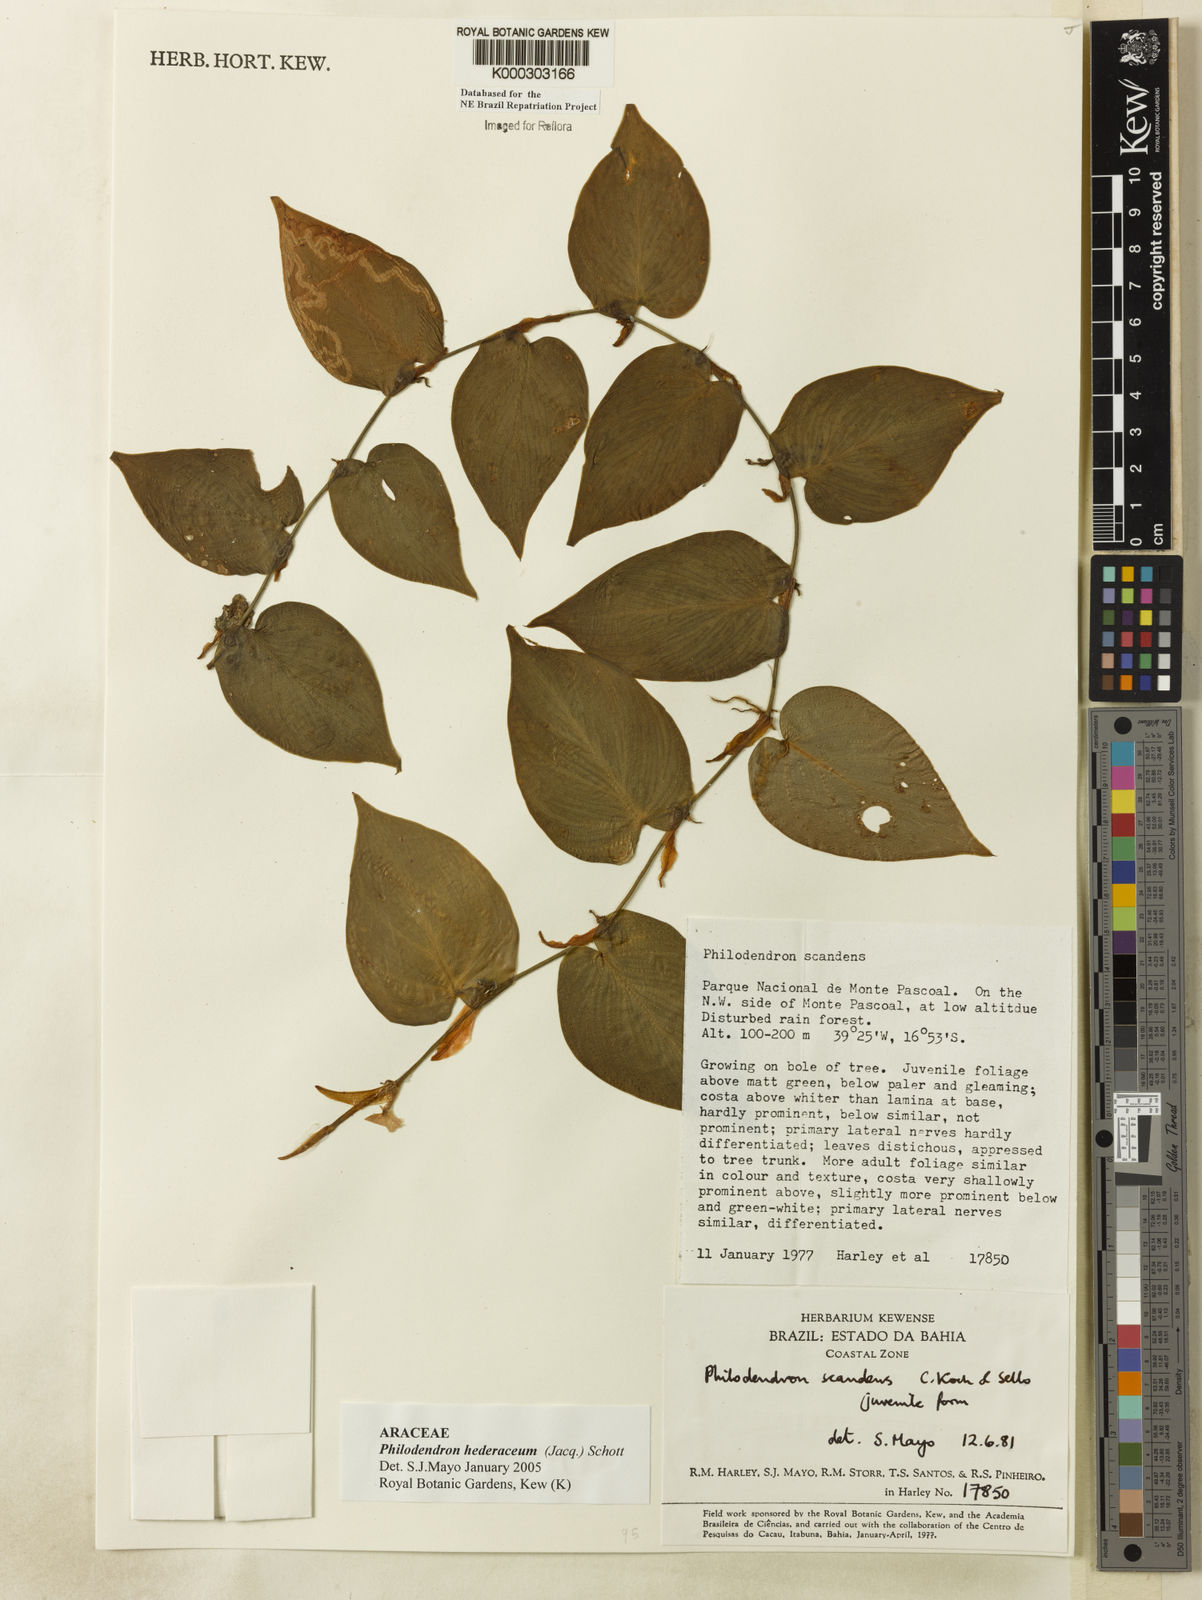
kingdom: Plantae
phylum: Tracheophyta
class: Liliopsida
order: Alismatales
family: Araceae
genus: Philodendron
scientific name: Philodendron hederaceum
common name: Vilevine
